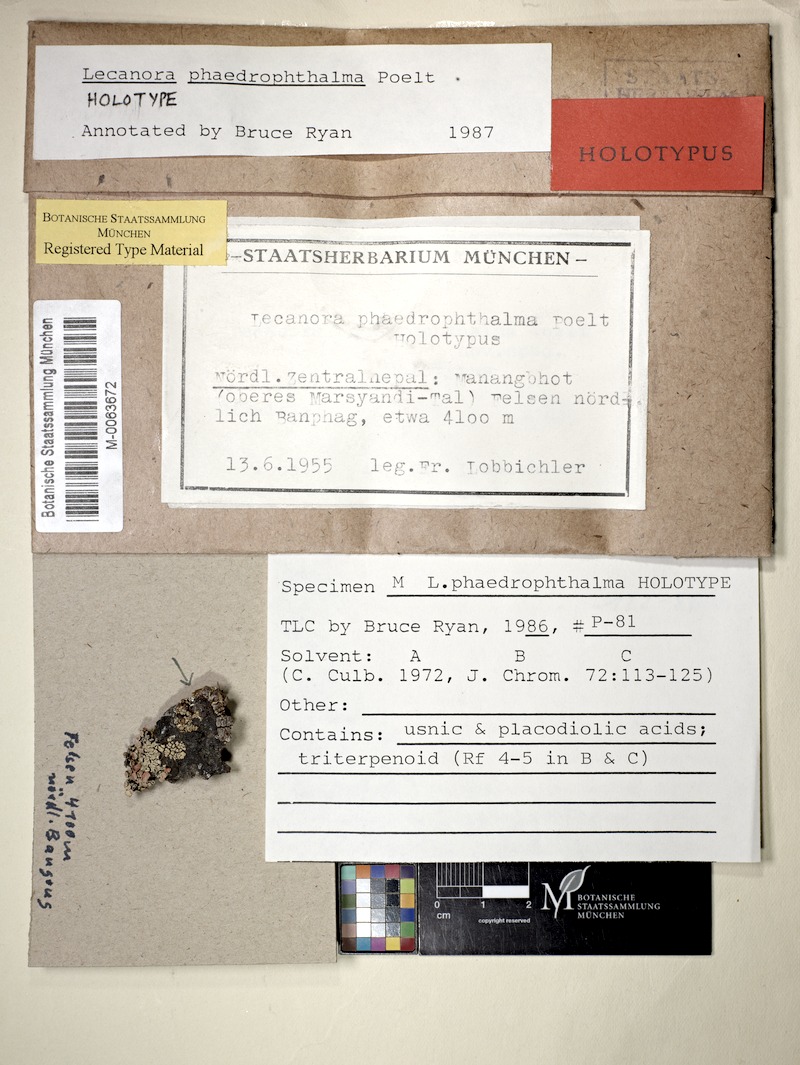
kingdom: Fungi
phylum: Ascomycota
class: Lecanoromycetes
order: Lecanorales
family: Lecanoraceae
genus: Omphalodina
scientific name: Omphalodina phaedrophthalma
